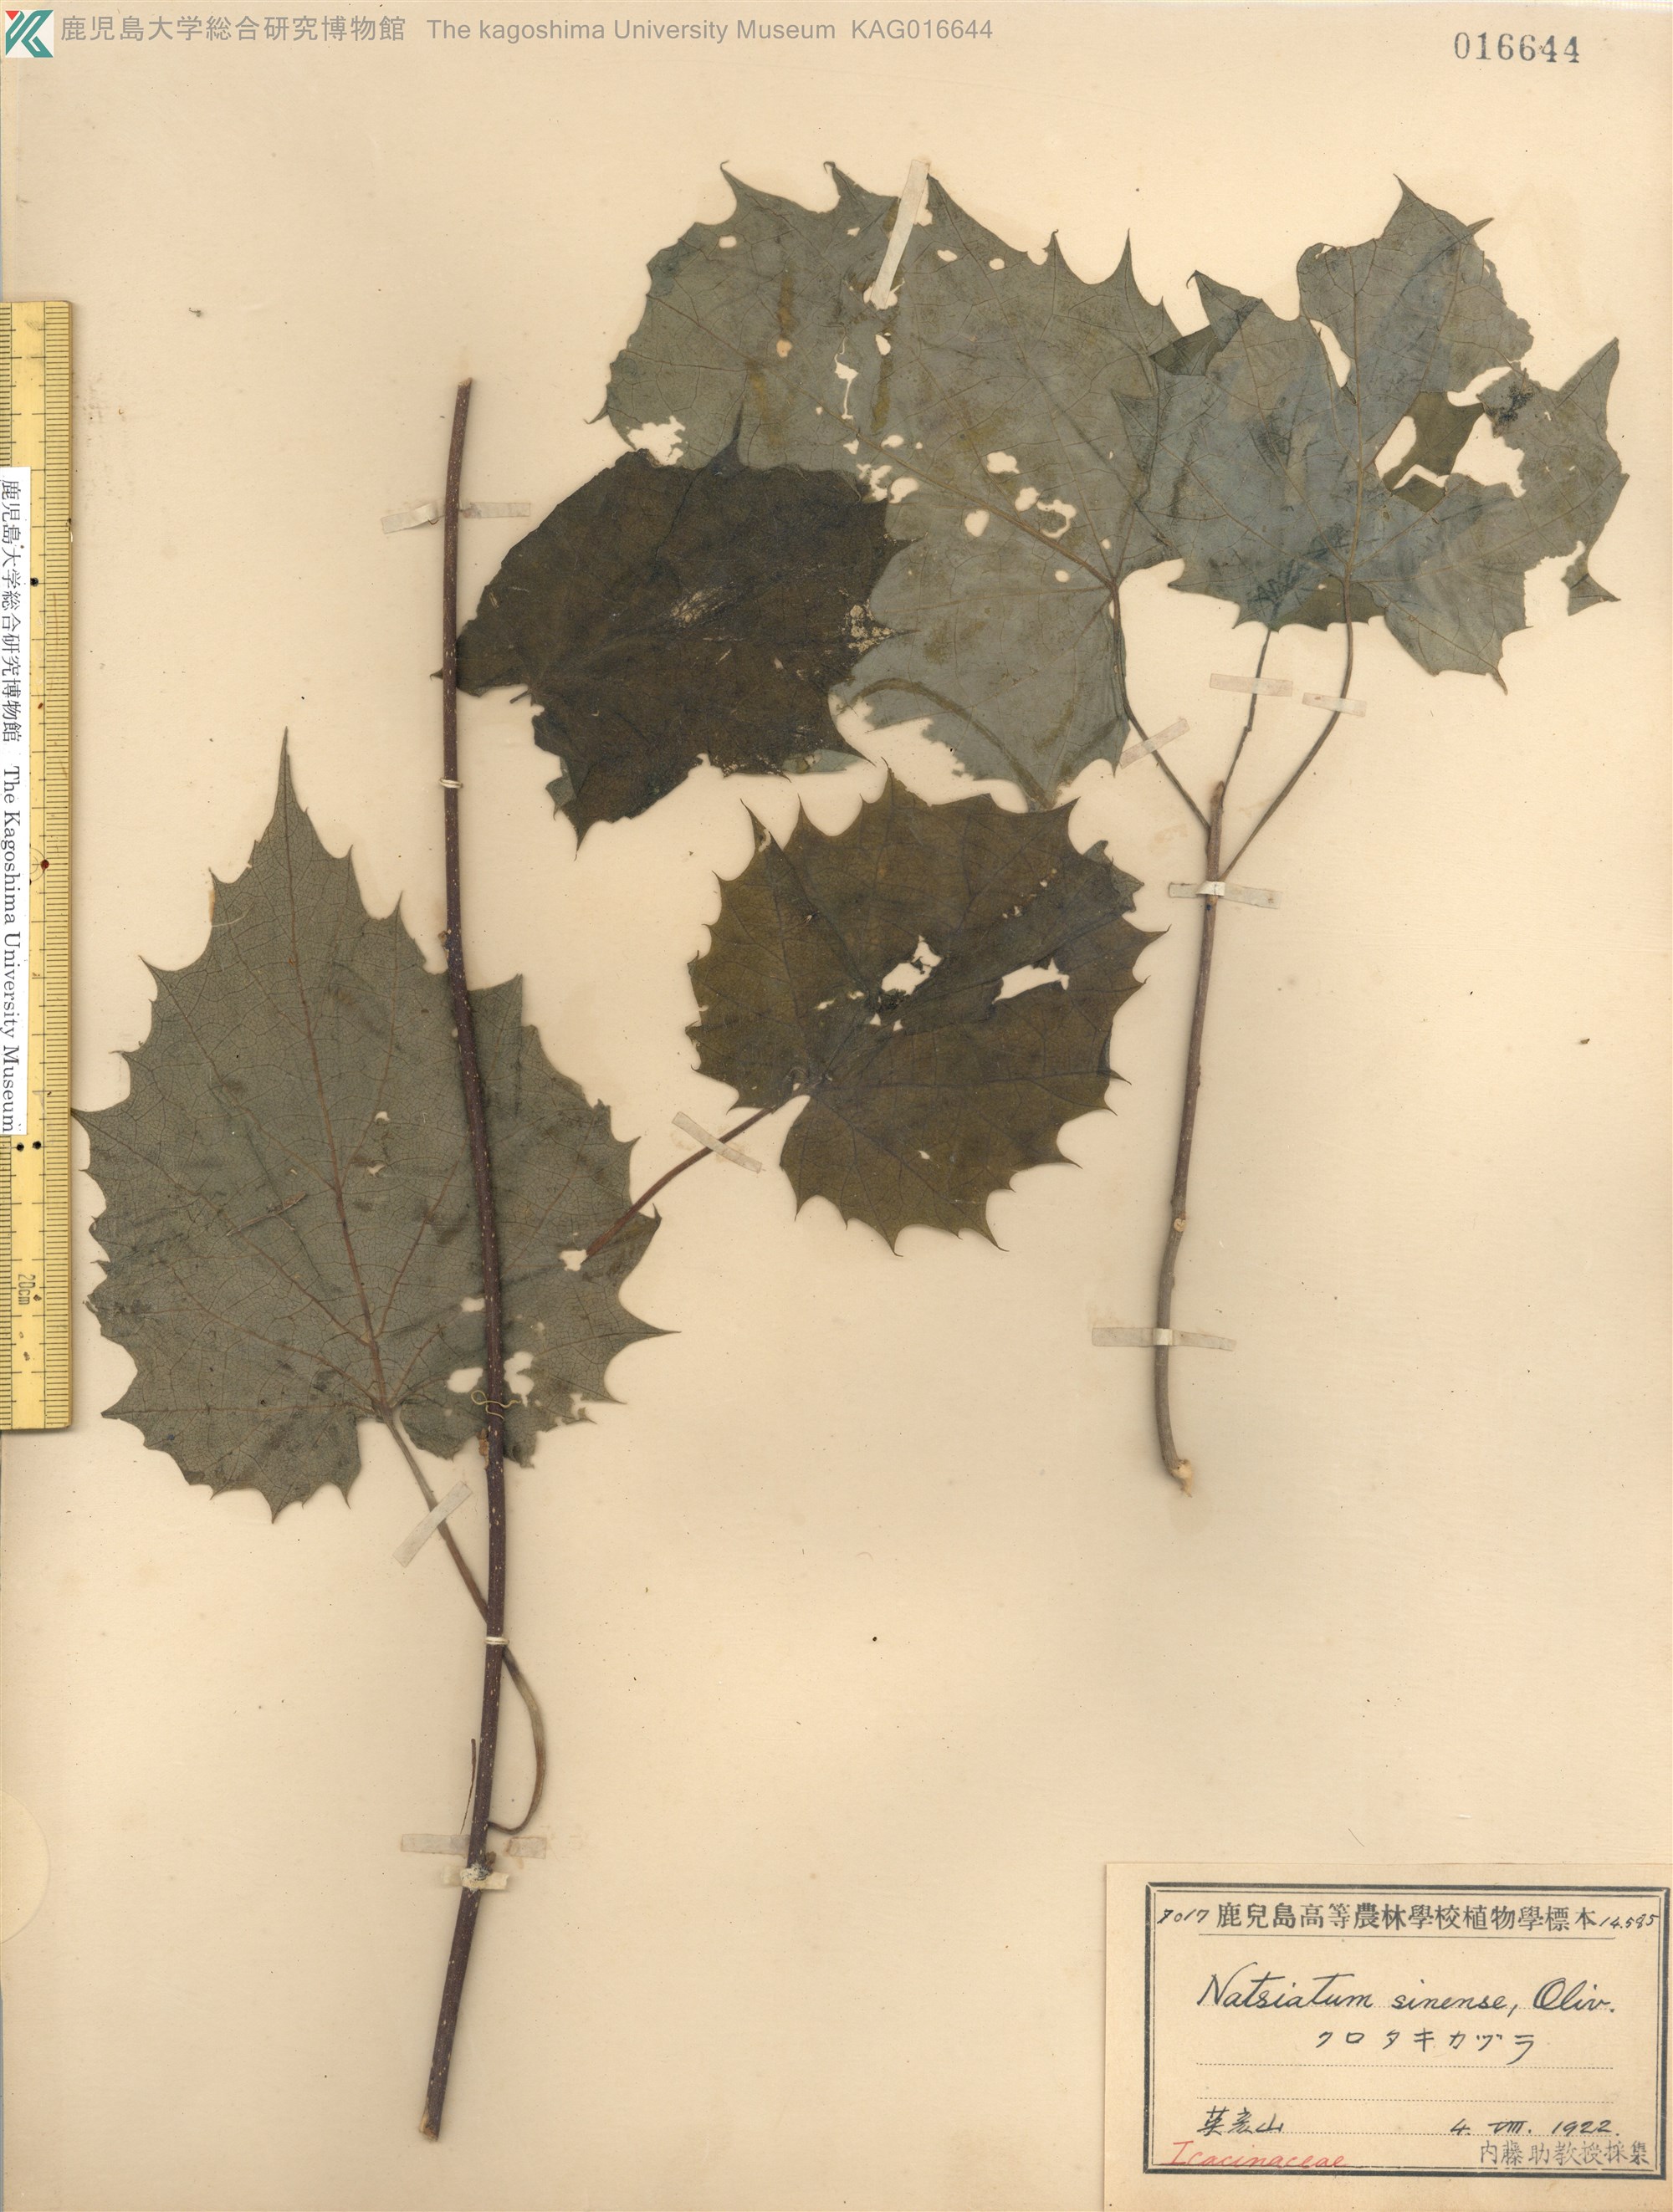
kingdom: Plantae
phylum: Tracheophyta
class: Magnoliopsida
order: Icacinales
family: Icacinaceae
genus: Hosiea
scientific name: Hosiea japonica
